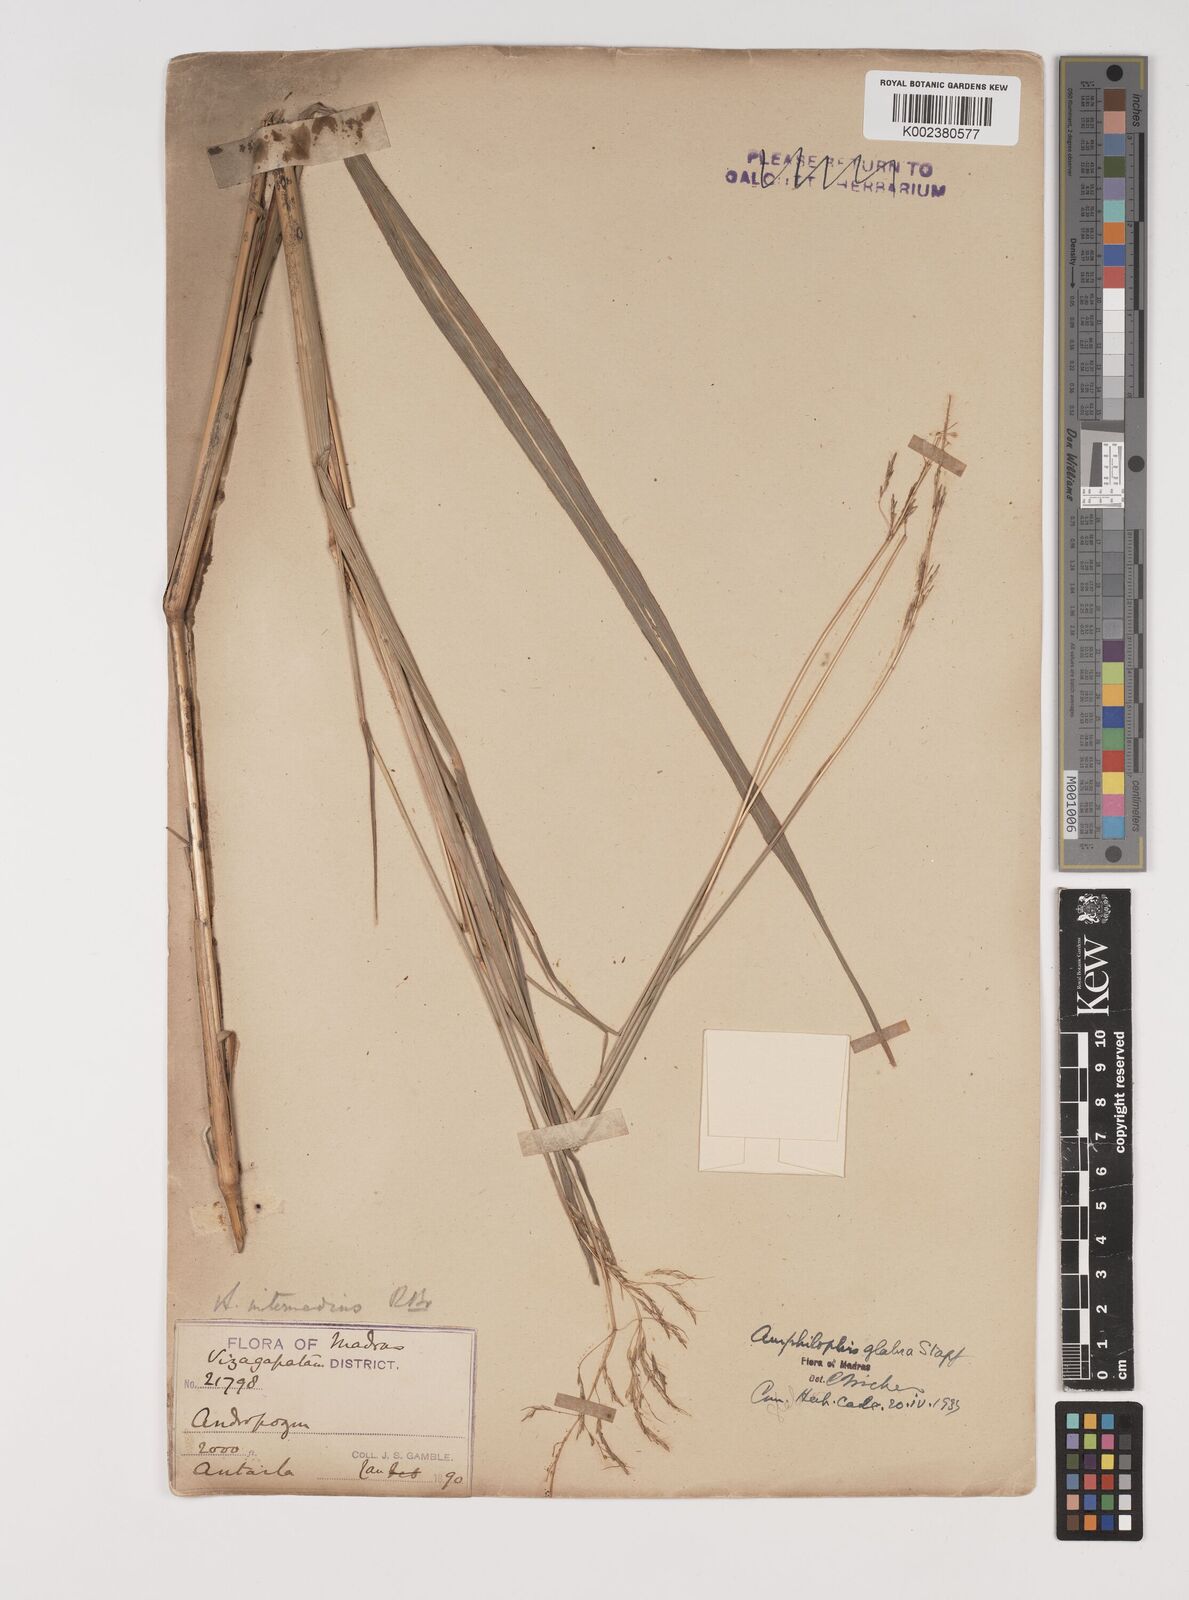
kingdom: Plantae
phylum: Tracheophyta
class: Liliopsida
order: Poales
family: Poaceae
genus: Bothriochloa
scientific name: Bothriochloa bladhii
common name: Caucasian bluestem
